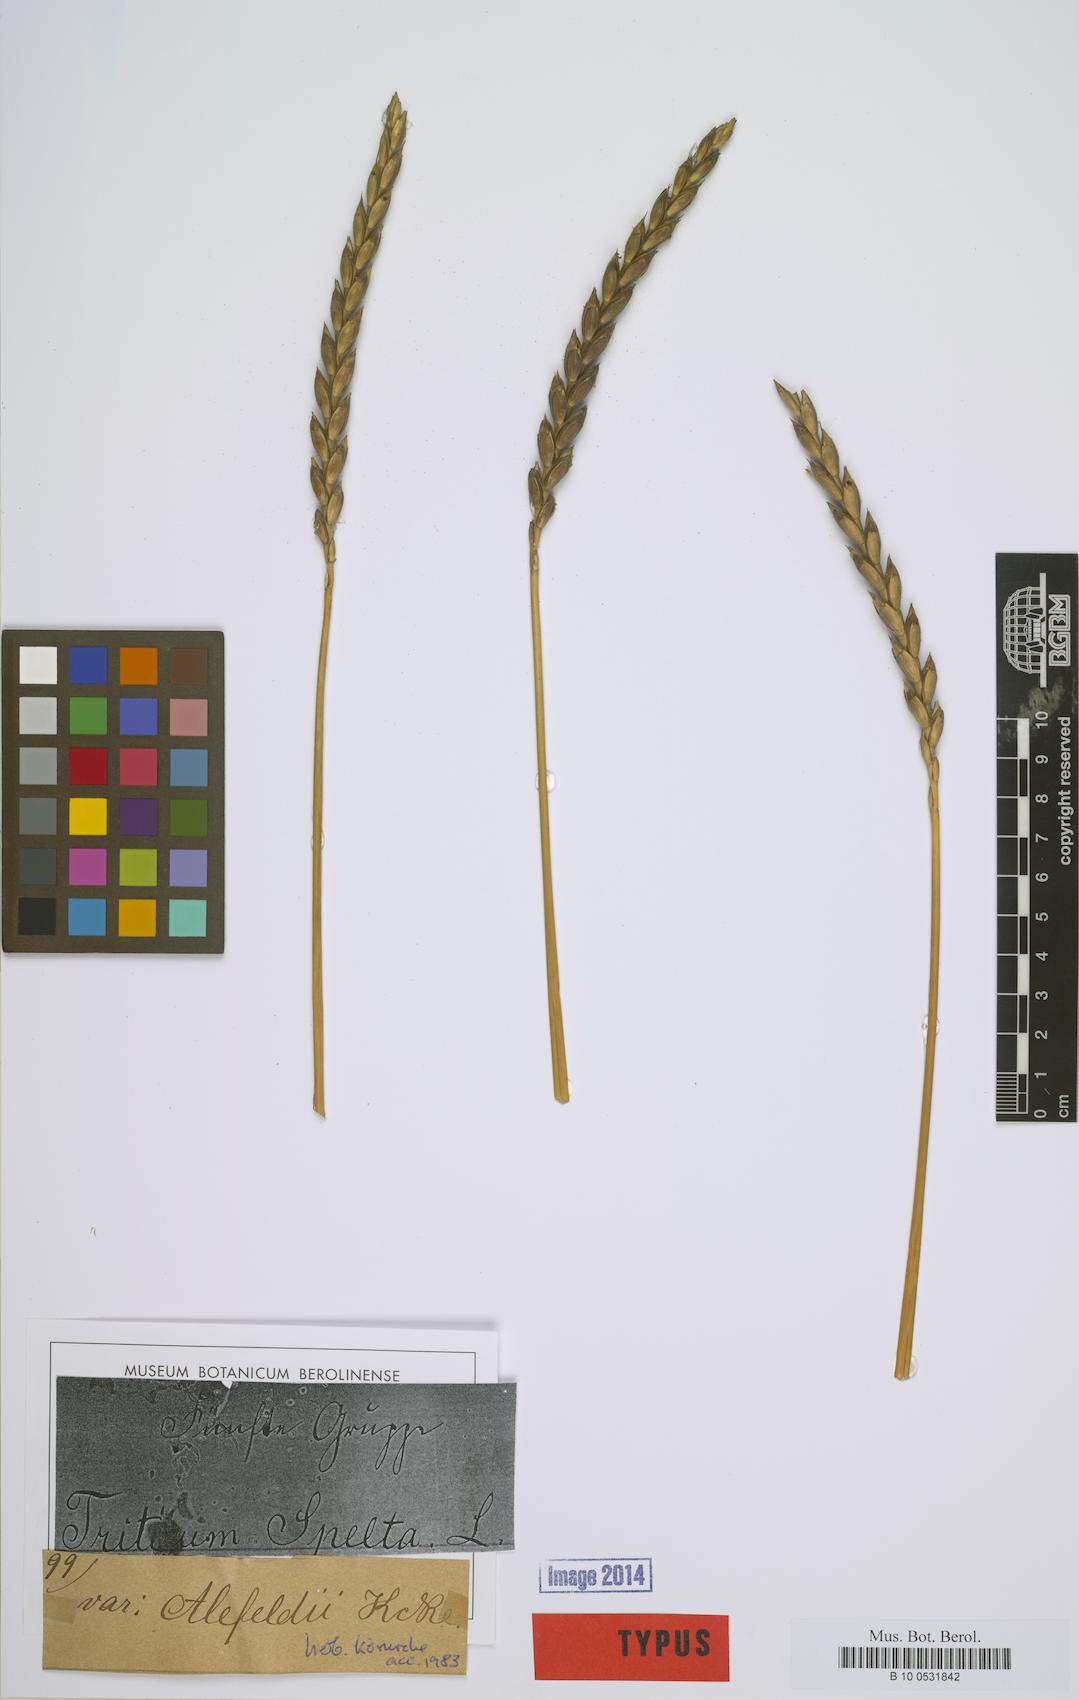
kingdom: Plantae
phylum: Tracheophyta
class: Liliopsida
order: Poales
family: Poaceae
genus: Triticum
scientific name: Triticum aestivum
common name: Common wheat
